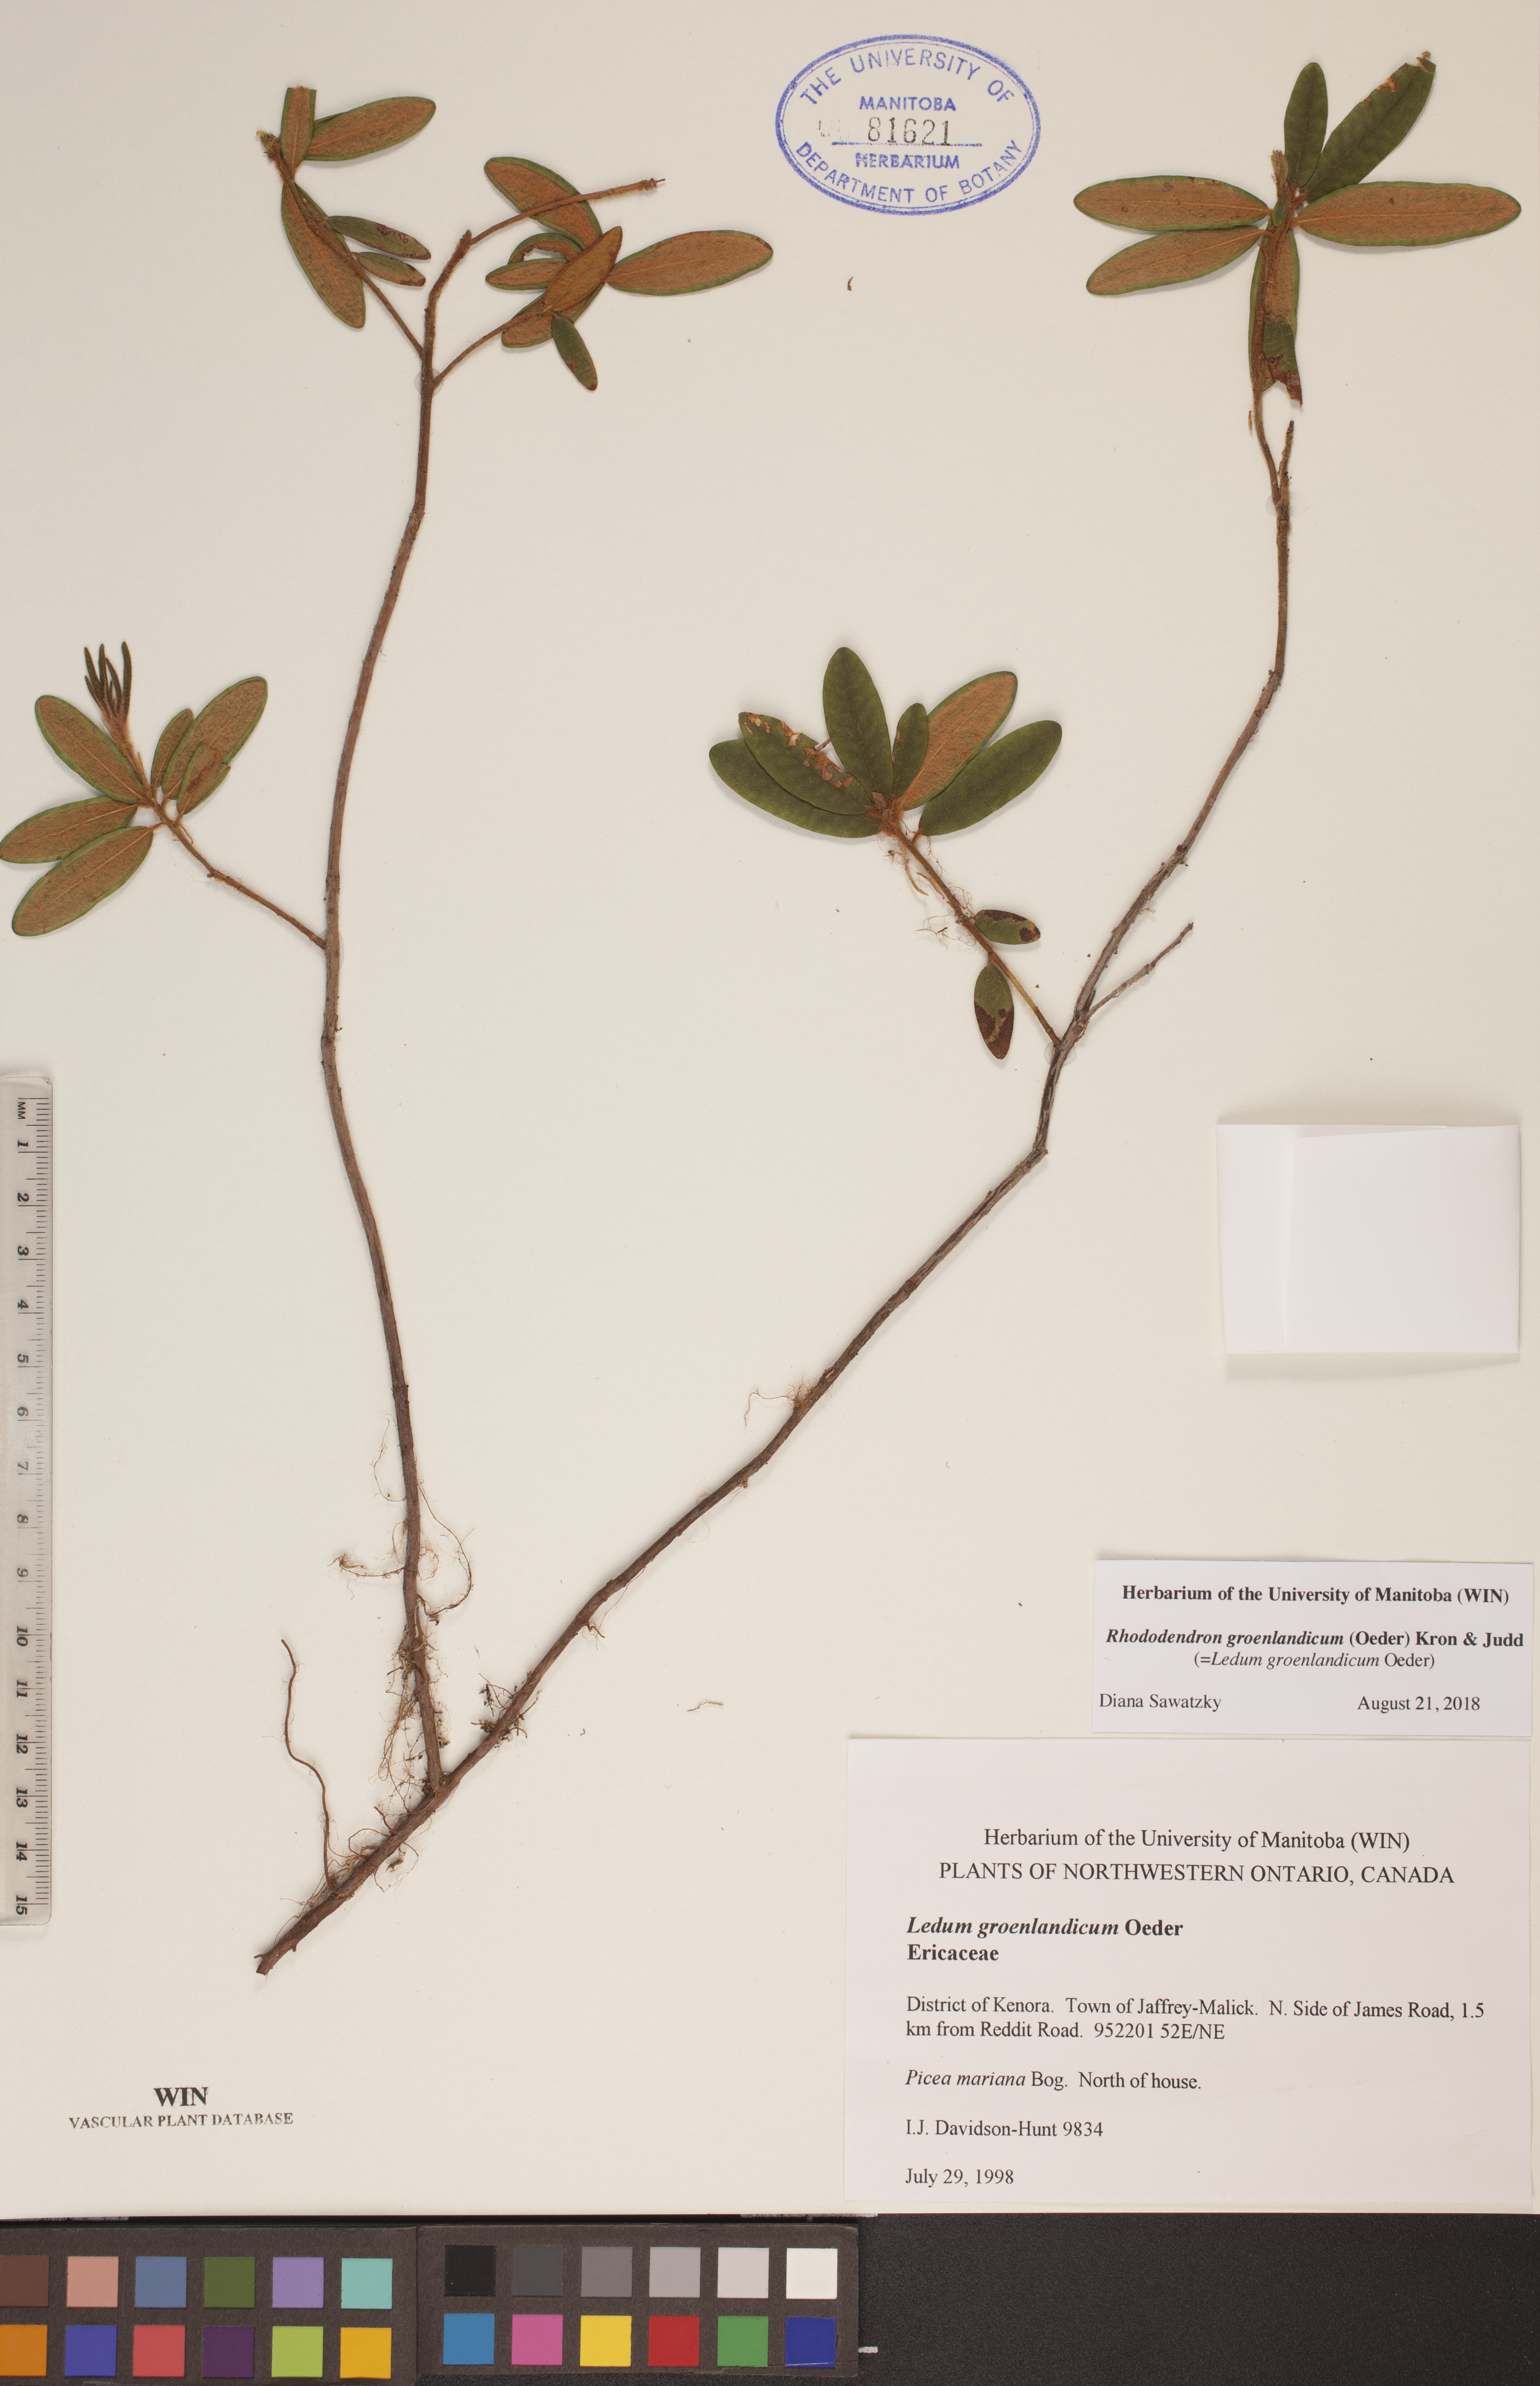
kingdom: Plantae
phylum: Tracheophyta
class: Magnoliopsida
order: Ericales
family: Ericaceae
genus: Rhododendron
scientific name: Rhododendron groenlandicum
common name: Bog labrador tea
